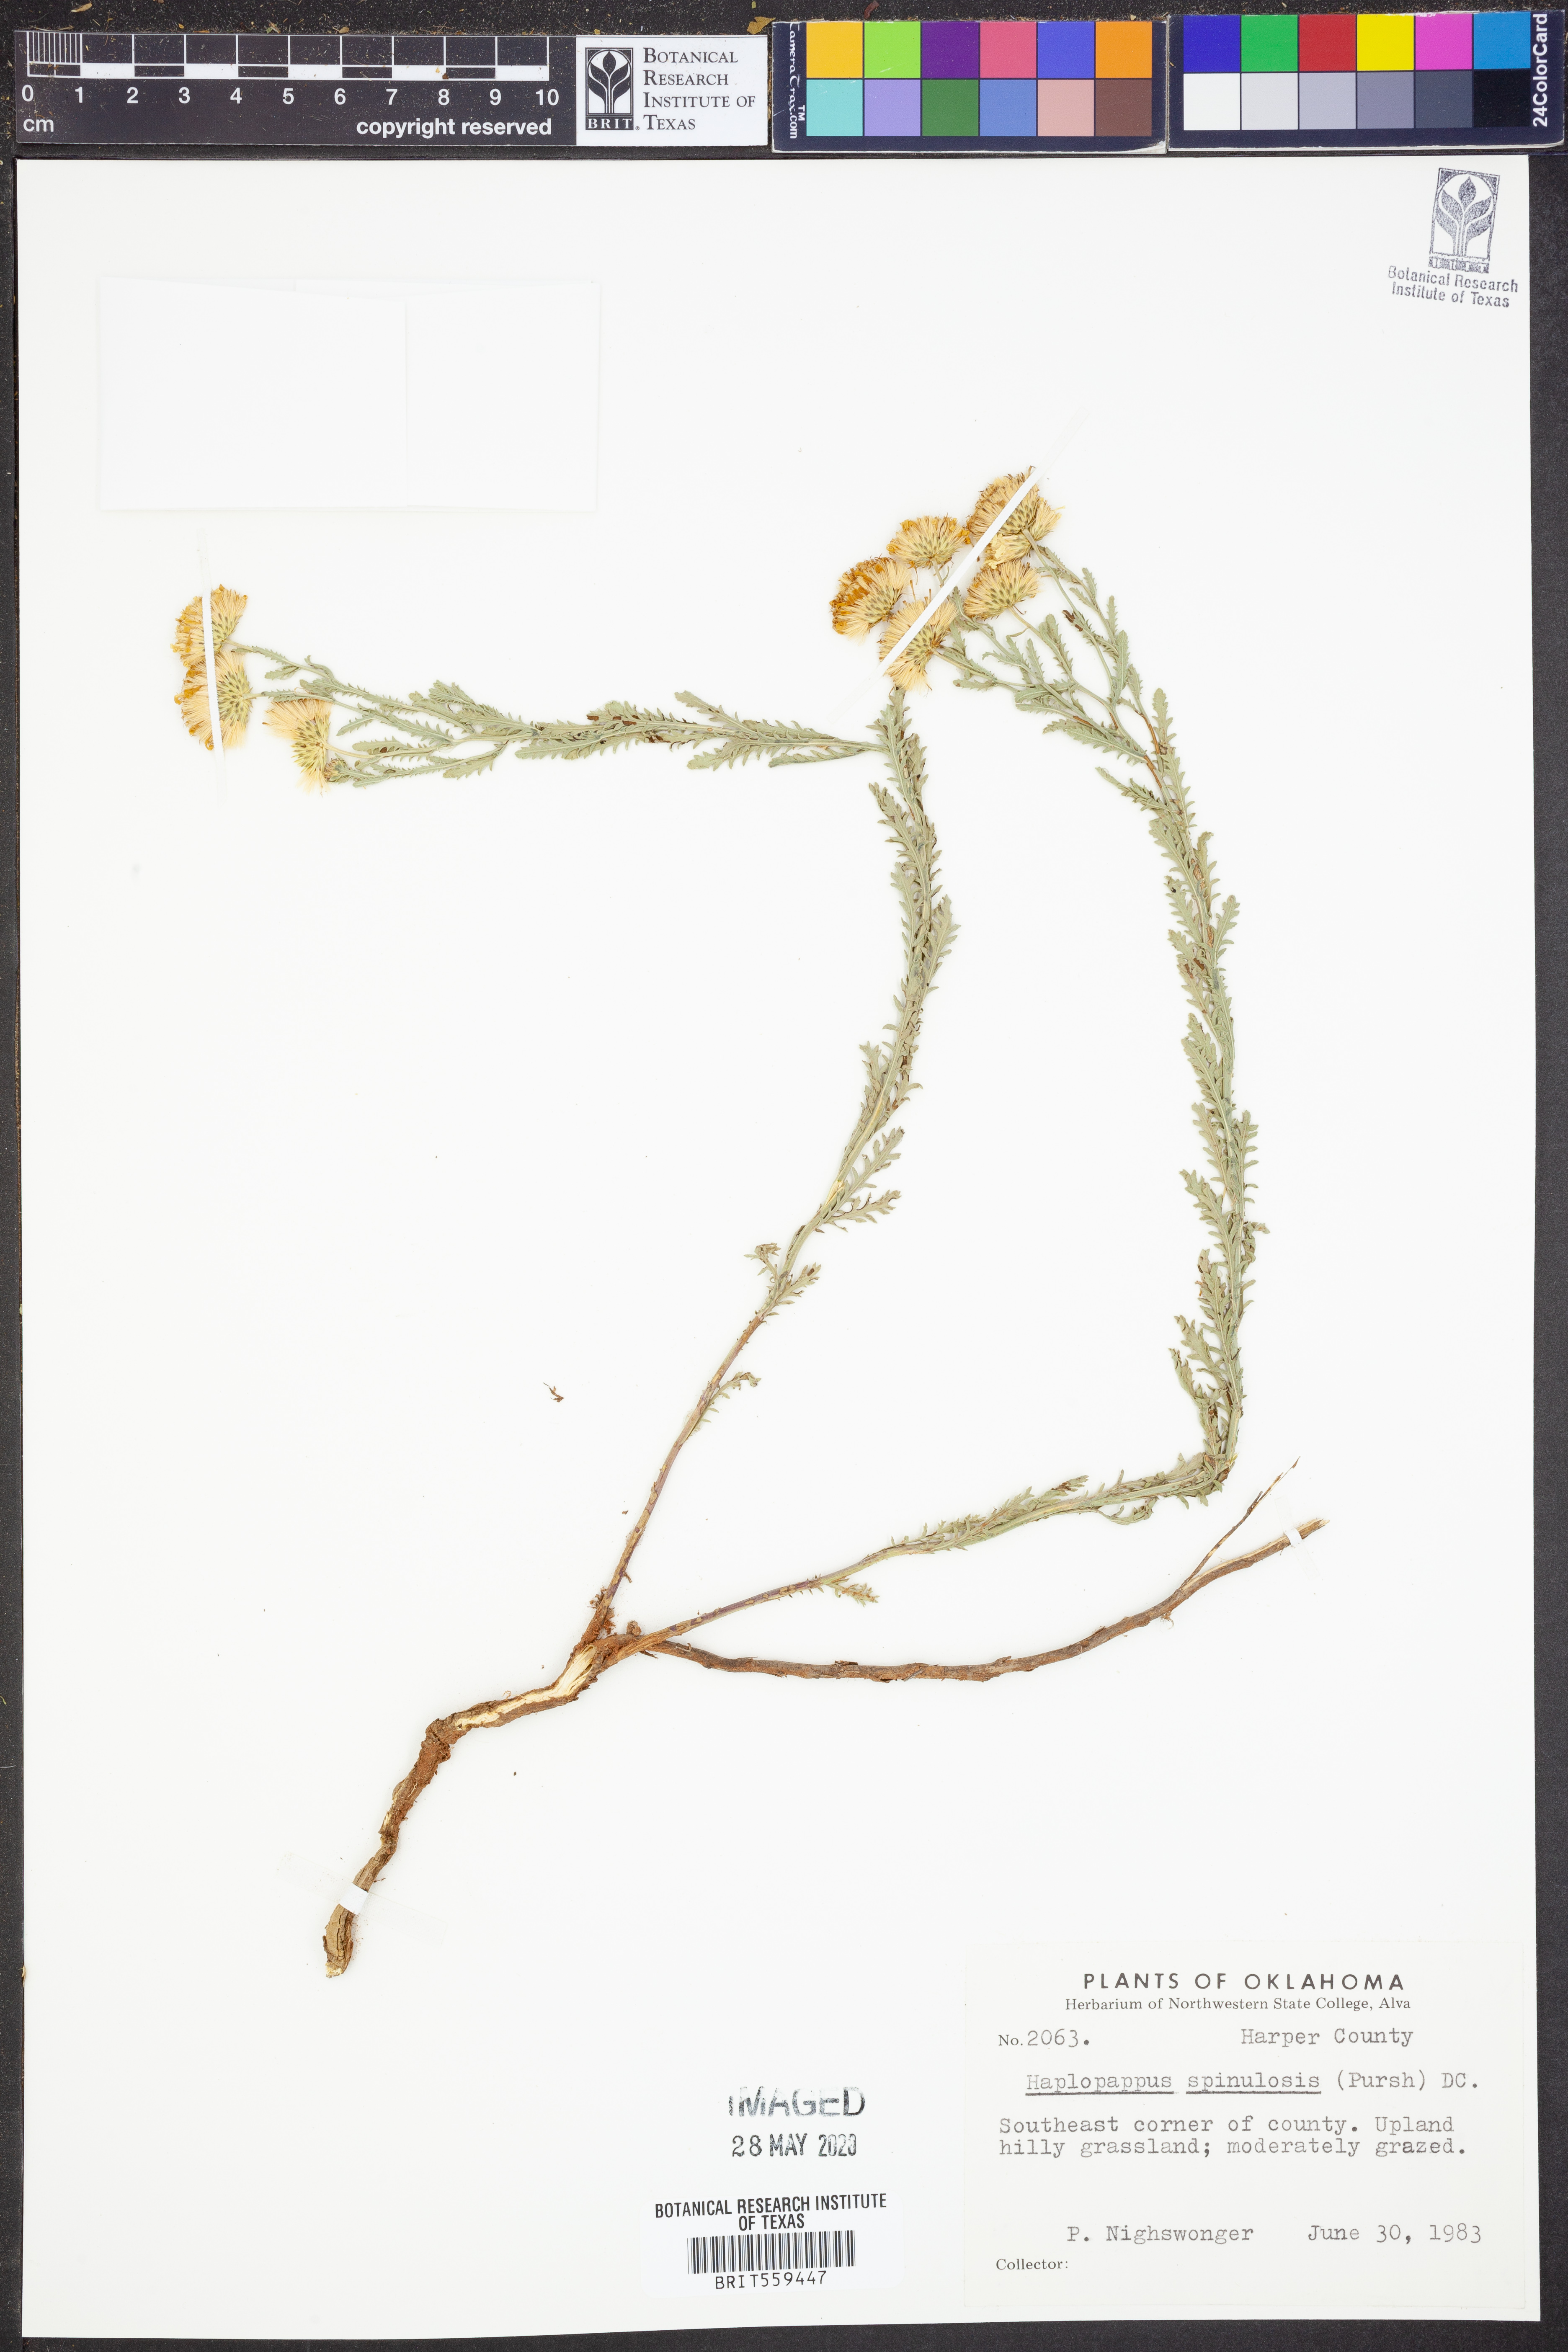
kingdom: Plantae
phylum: Tracheophyta
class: Magnoliopsida
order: Asterales
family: Asteraceae
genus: Xanthisma
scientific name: Xanthisma spinulosum
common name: Spiny goldenweed
